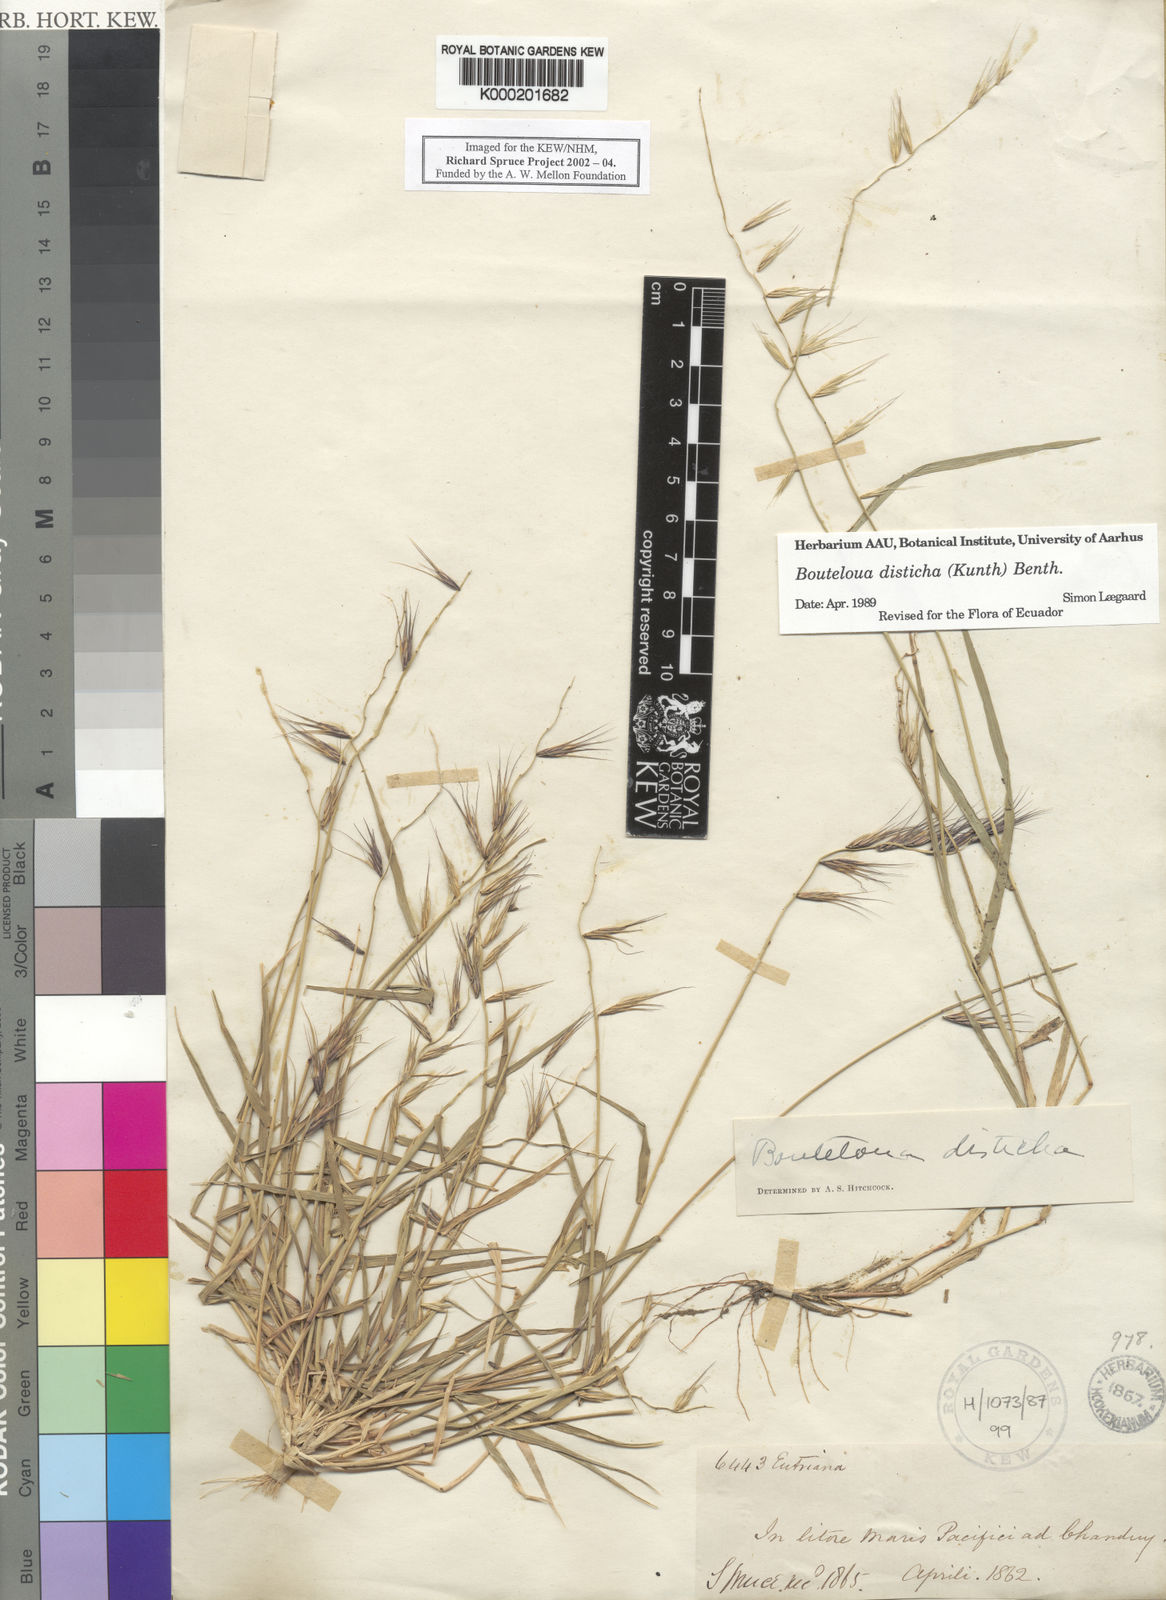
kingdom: Plantae
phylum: Tracheophyta
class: Liliopsida
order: Poales
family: Poaceae
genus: Bouteloua
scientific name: Bouteloua disticha
